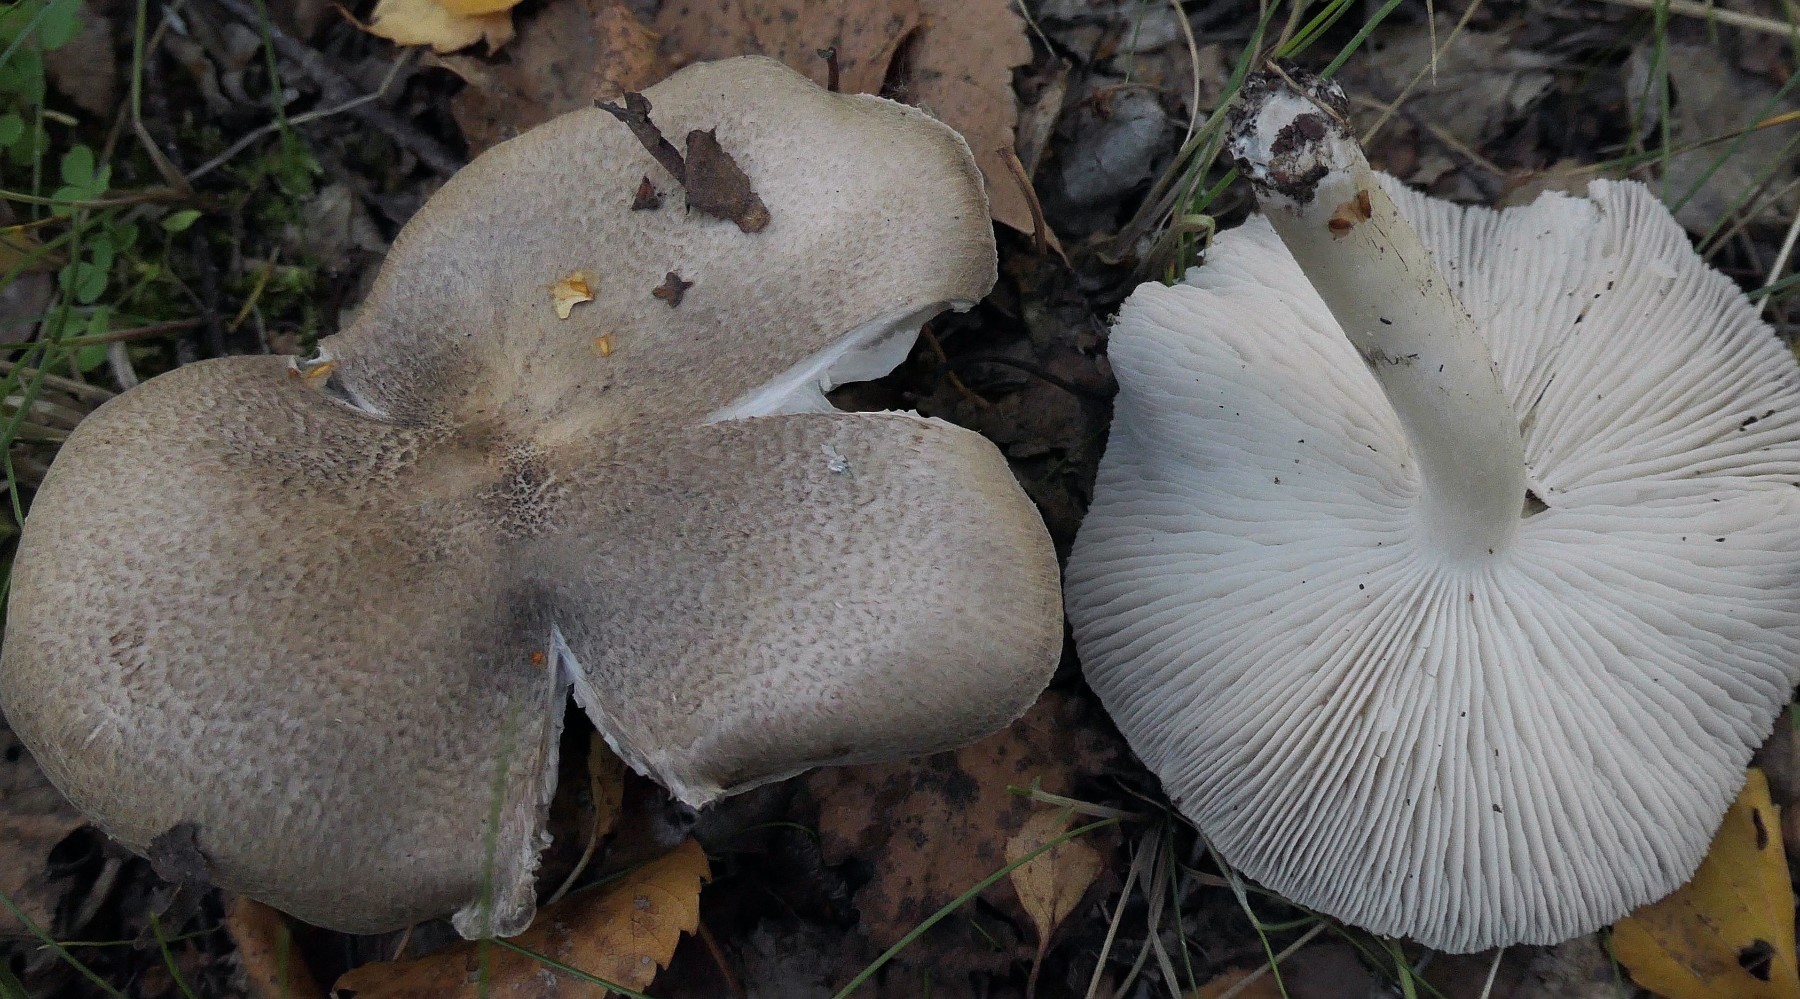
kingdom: Fungi
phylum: Basidiomycota
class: Agaricomycetes
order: Agaricales
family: Tricholomataceae
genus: Tricholoma
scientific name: Tricholoma scalpturatum
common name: gulplettet ridderhat
